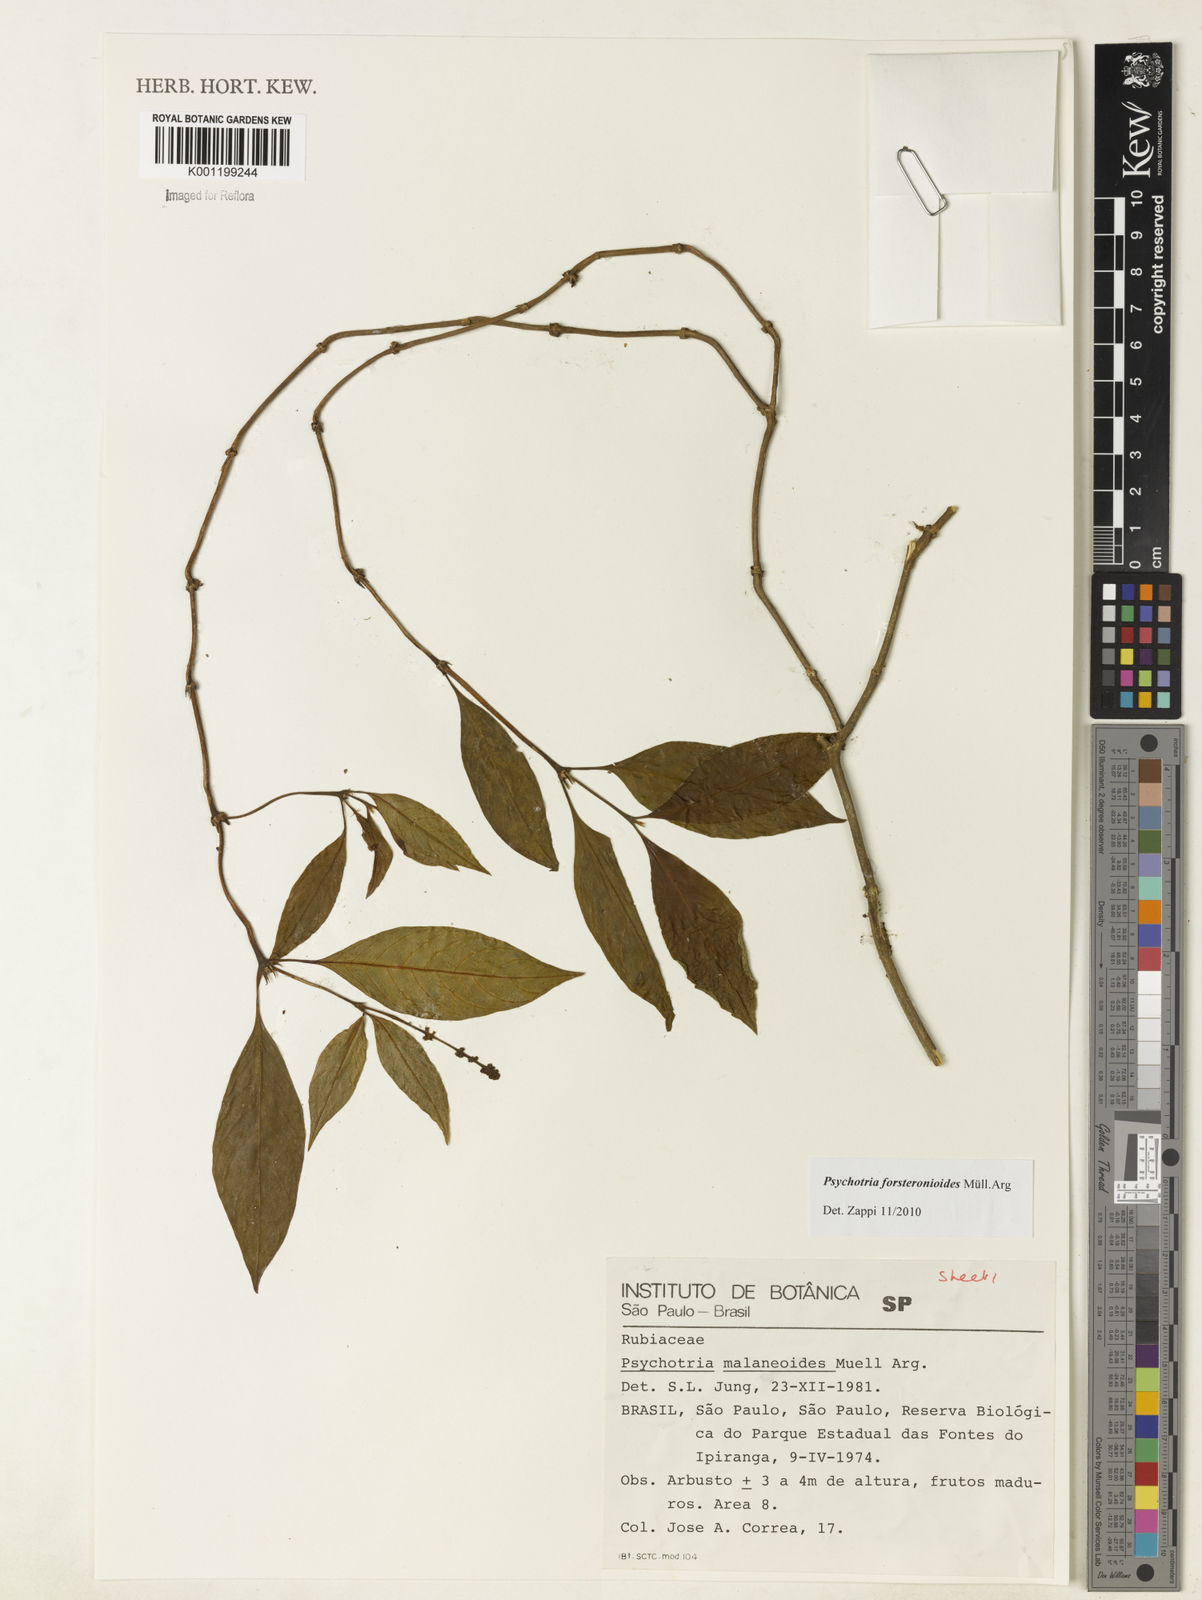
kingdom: Plantae
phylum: Tracheophyta
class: Magnoliopsida
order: Gentianales
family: Rubiaceae
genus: Psychotria
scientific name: Psychotria
